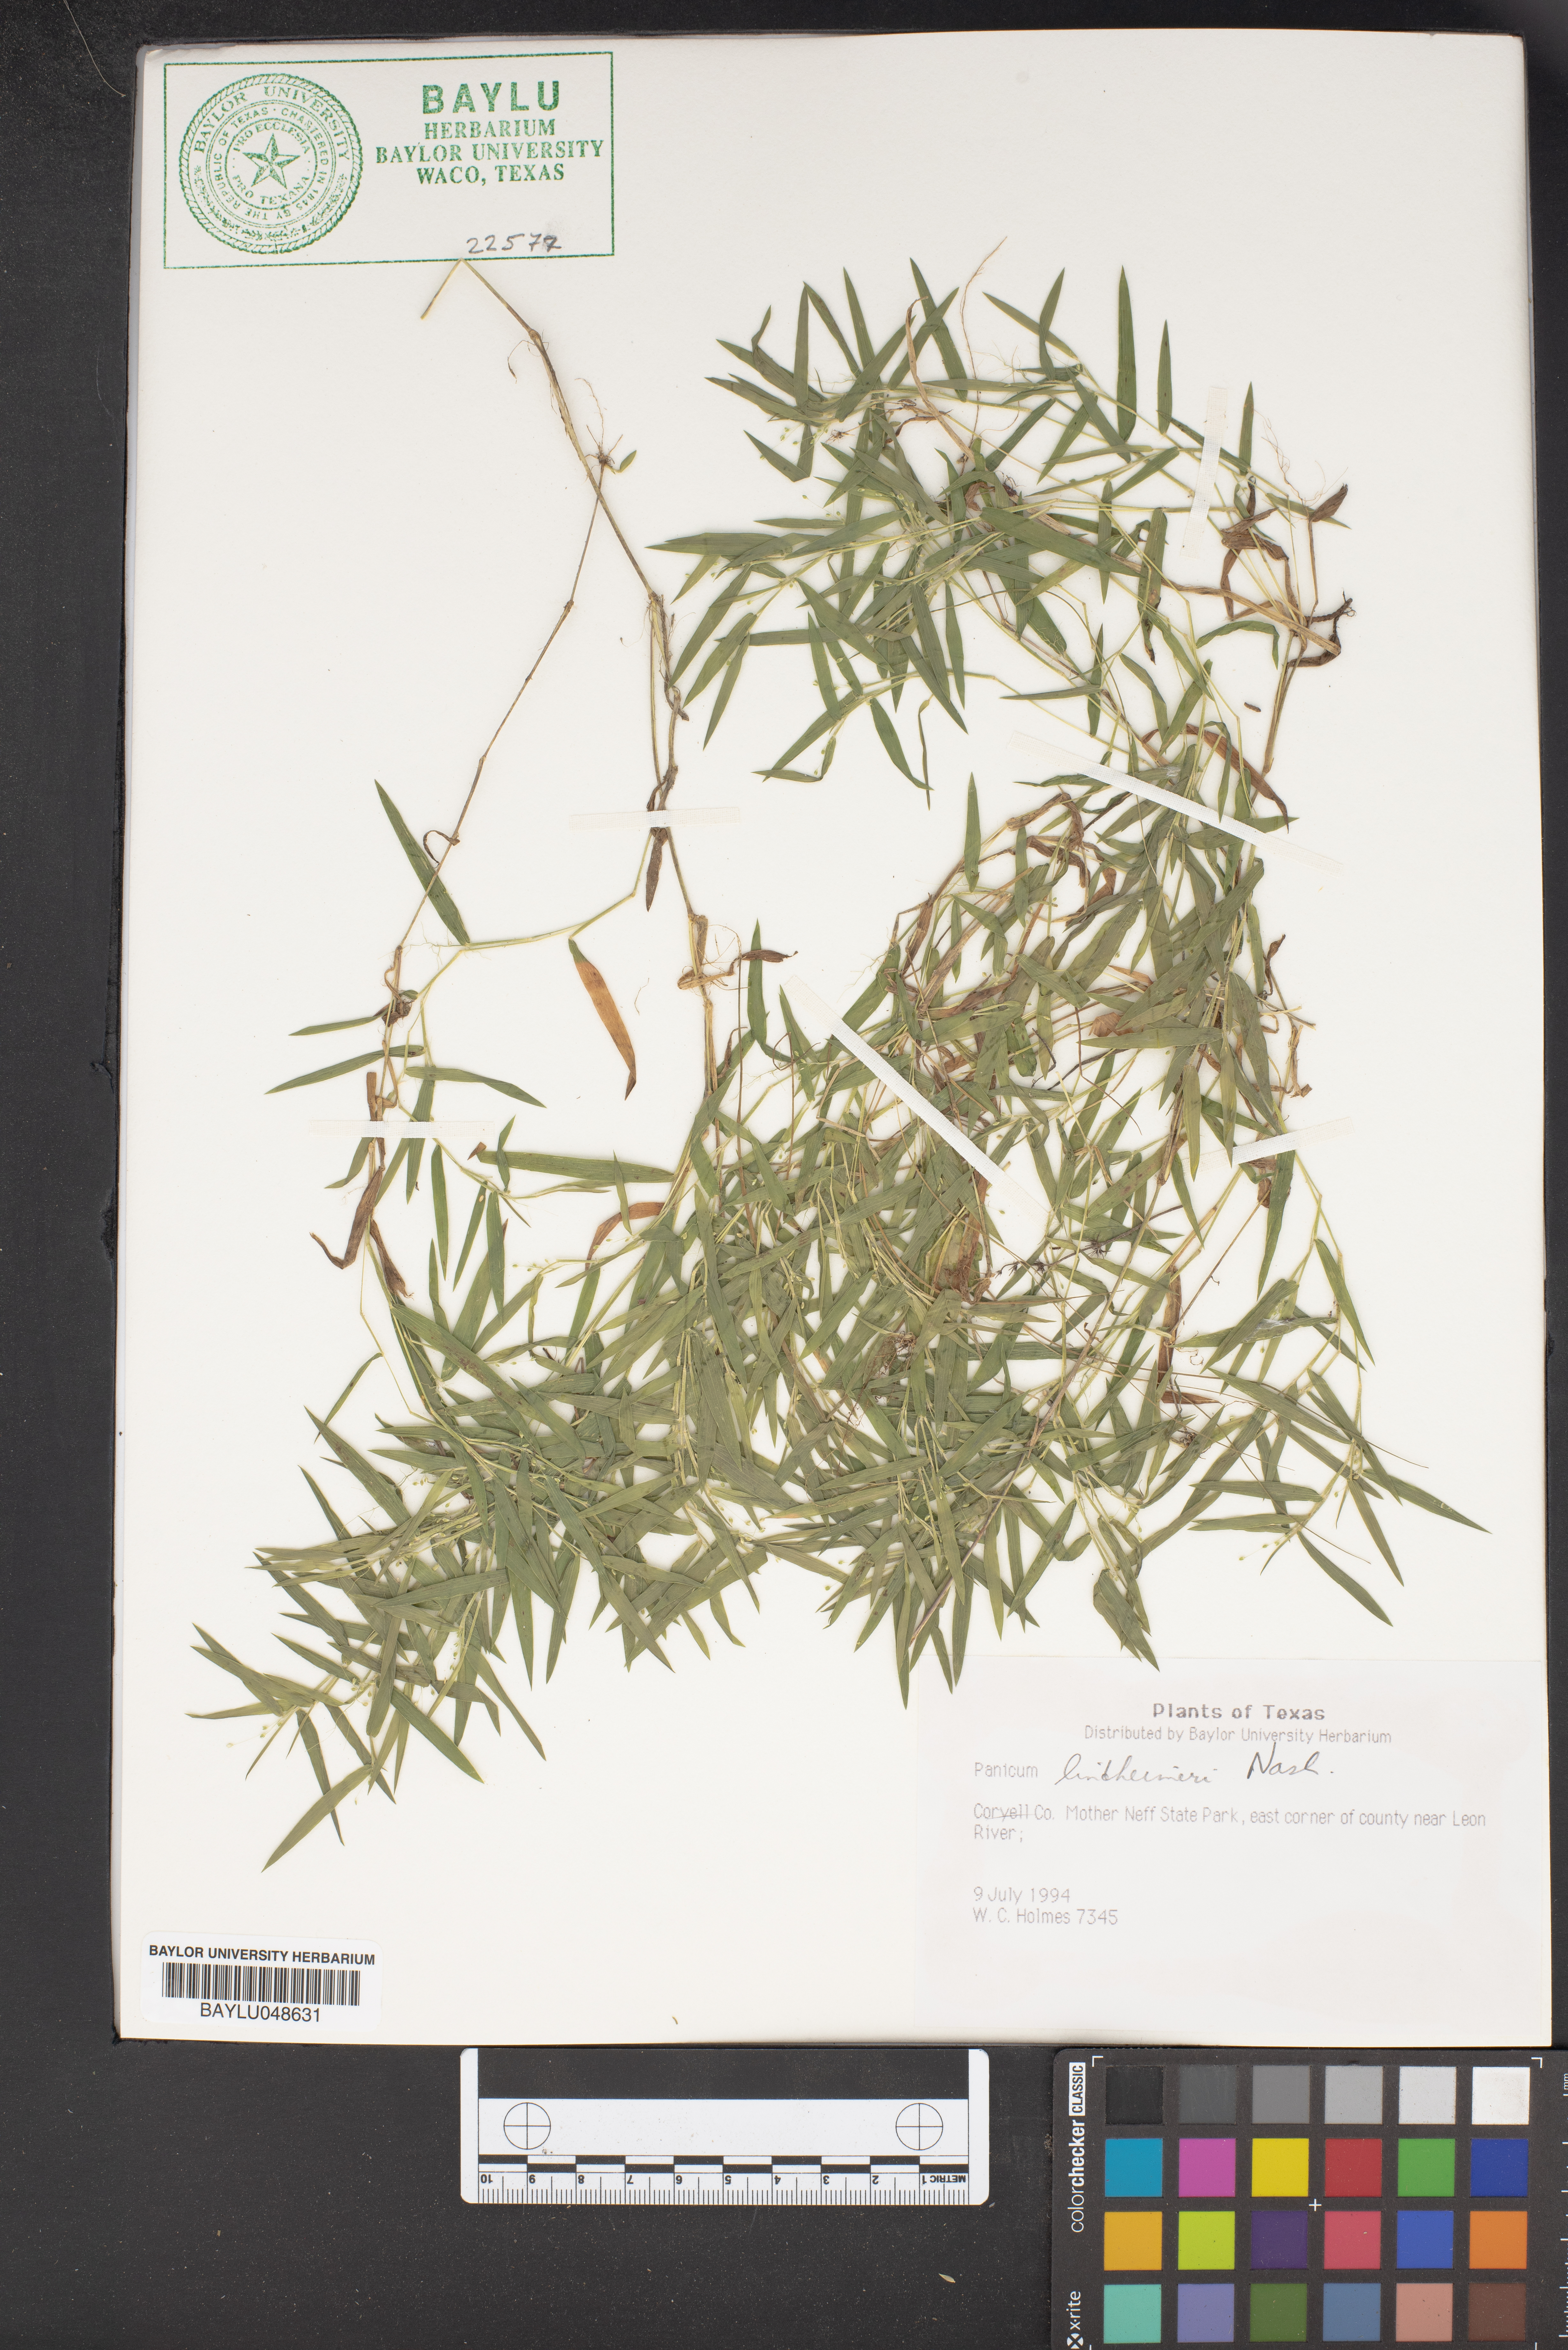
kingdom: Plantae
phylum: Tracheophyta
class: Liliopsida
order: Poales
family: Poaceae
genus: Dichanthelium
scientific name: Dichanthelium lindheimeri
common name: Lindheimer's panicgrass
